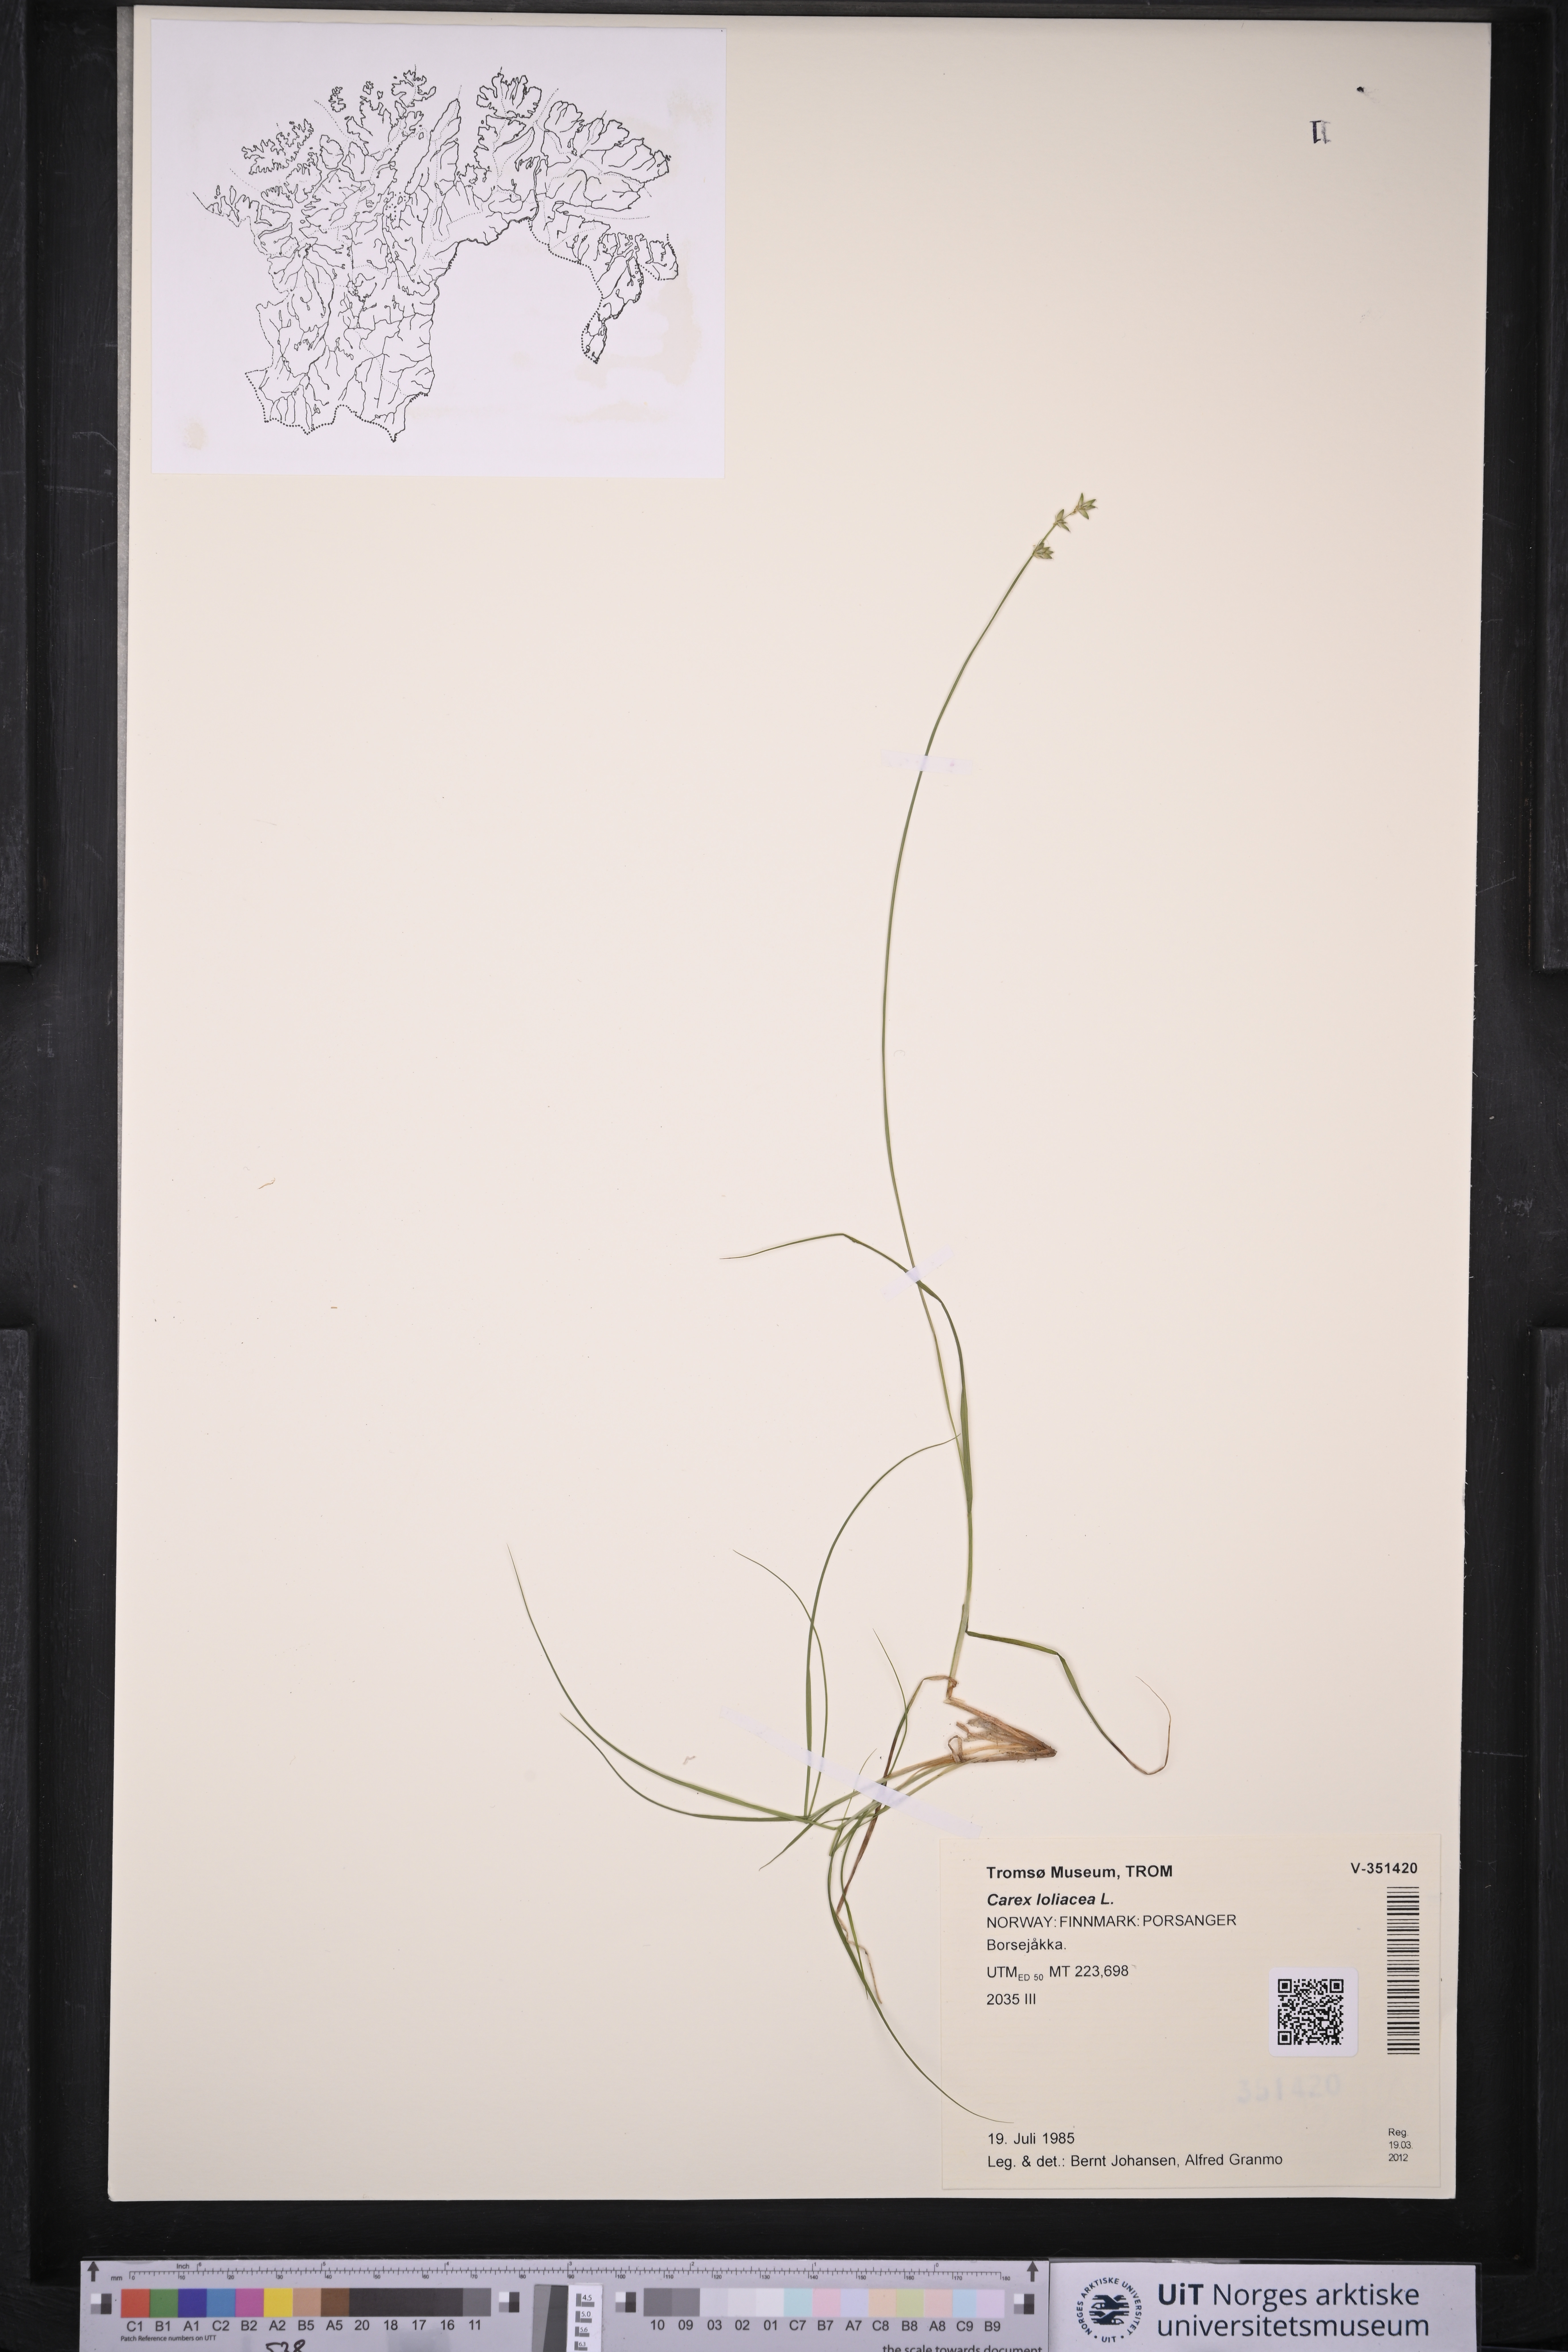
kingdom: Plantae
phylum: Tracheophyta
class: Liliopsida
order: Poales
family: Cyperaceae
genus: Carex
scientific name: Carex loliacea
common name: Ryegrass sedge
